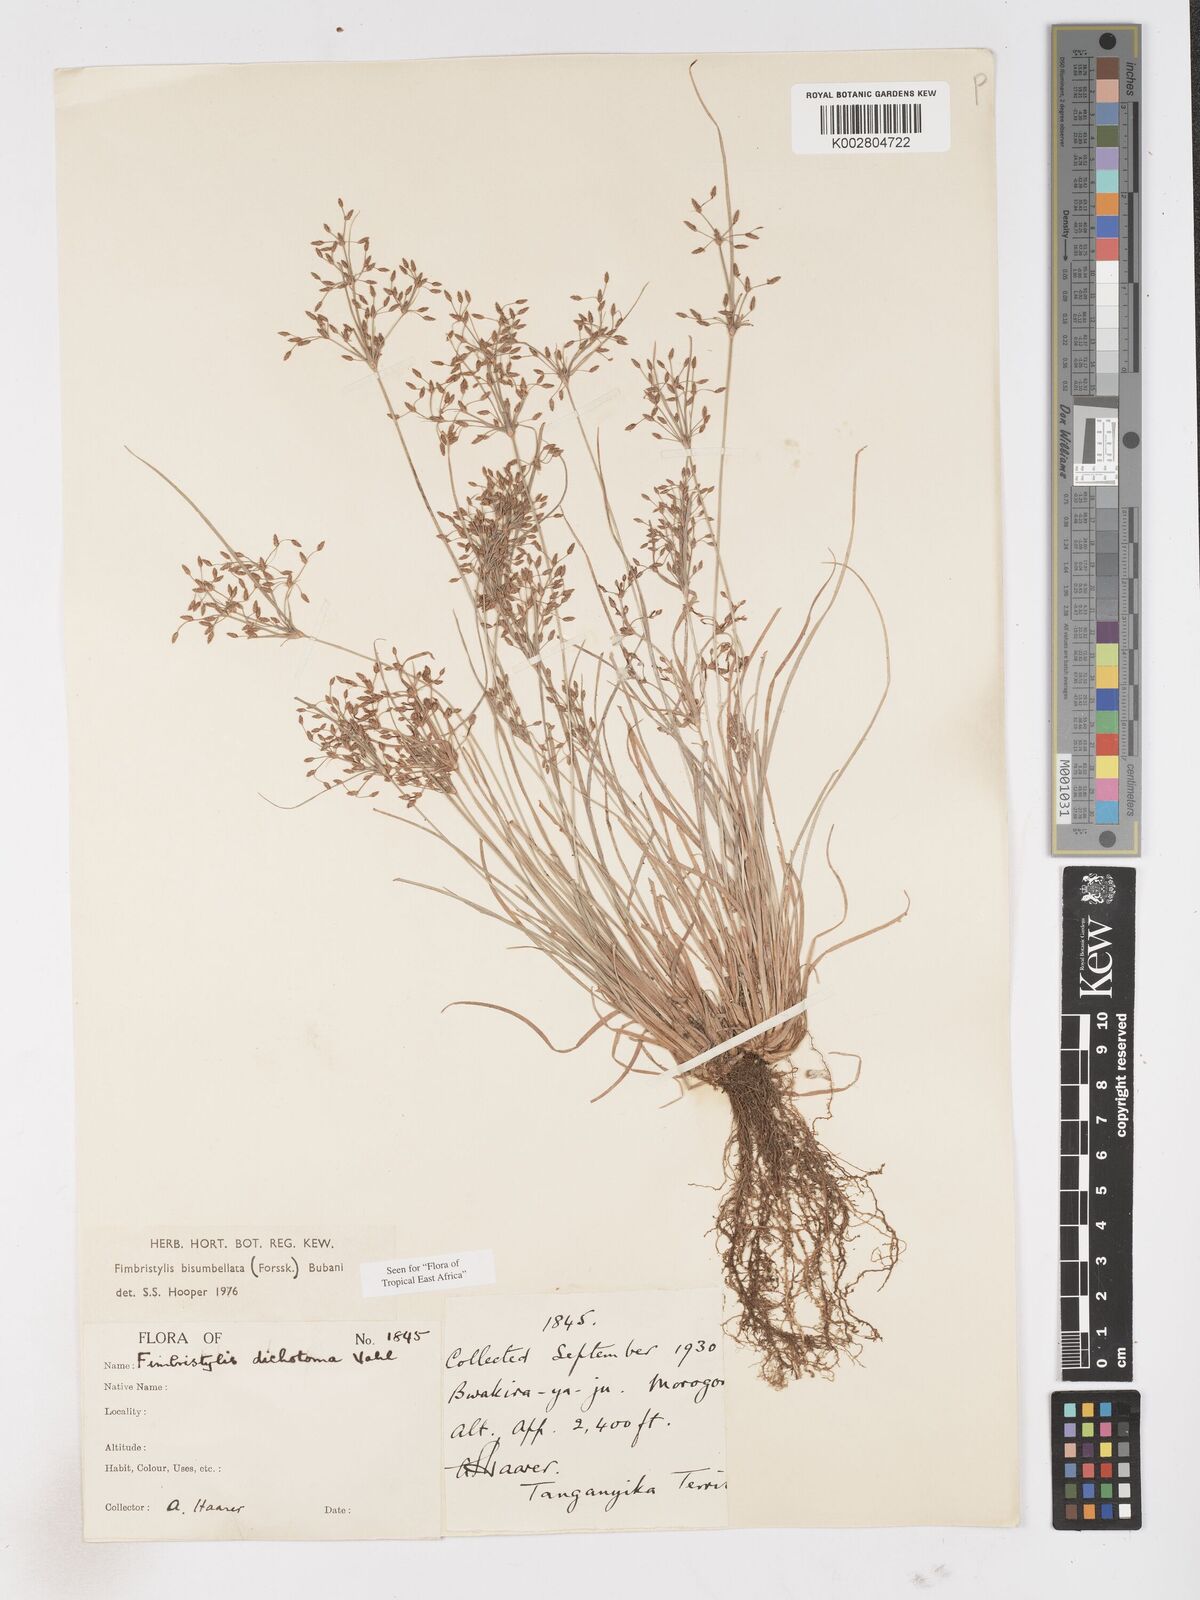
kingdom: Plantae
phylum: Tracheophyta
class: Liliopsida
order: Poales
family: Cyperaceae
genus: Fimbristylis
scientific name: Fimbristylis bisumbellata
